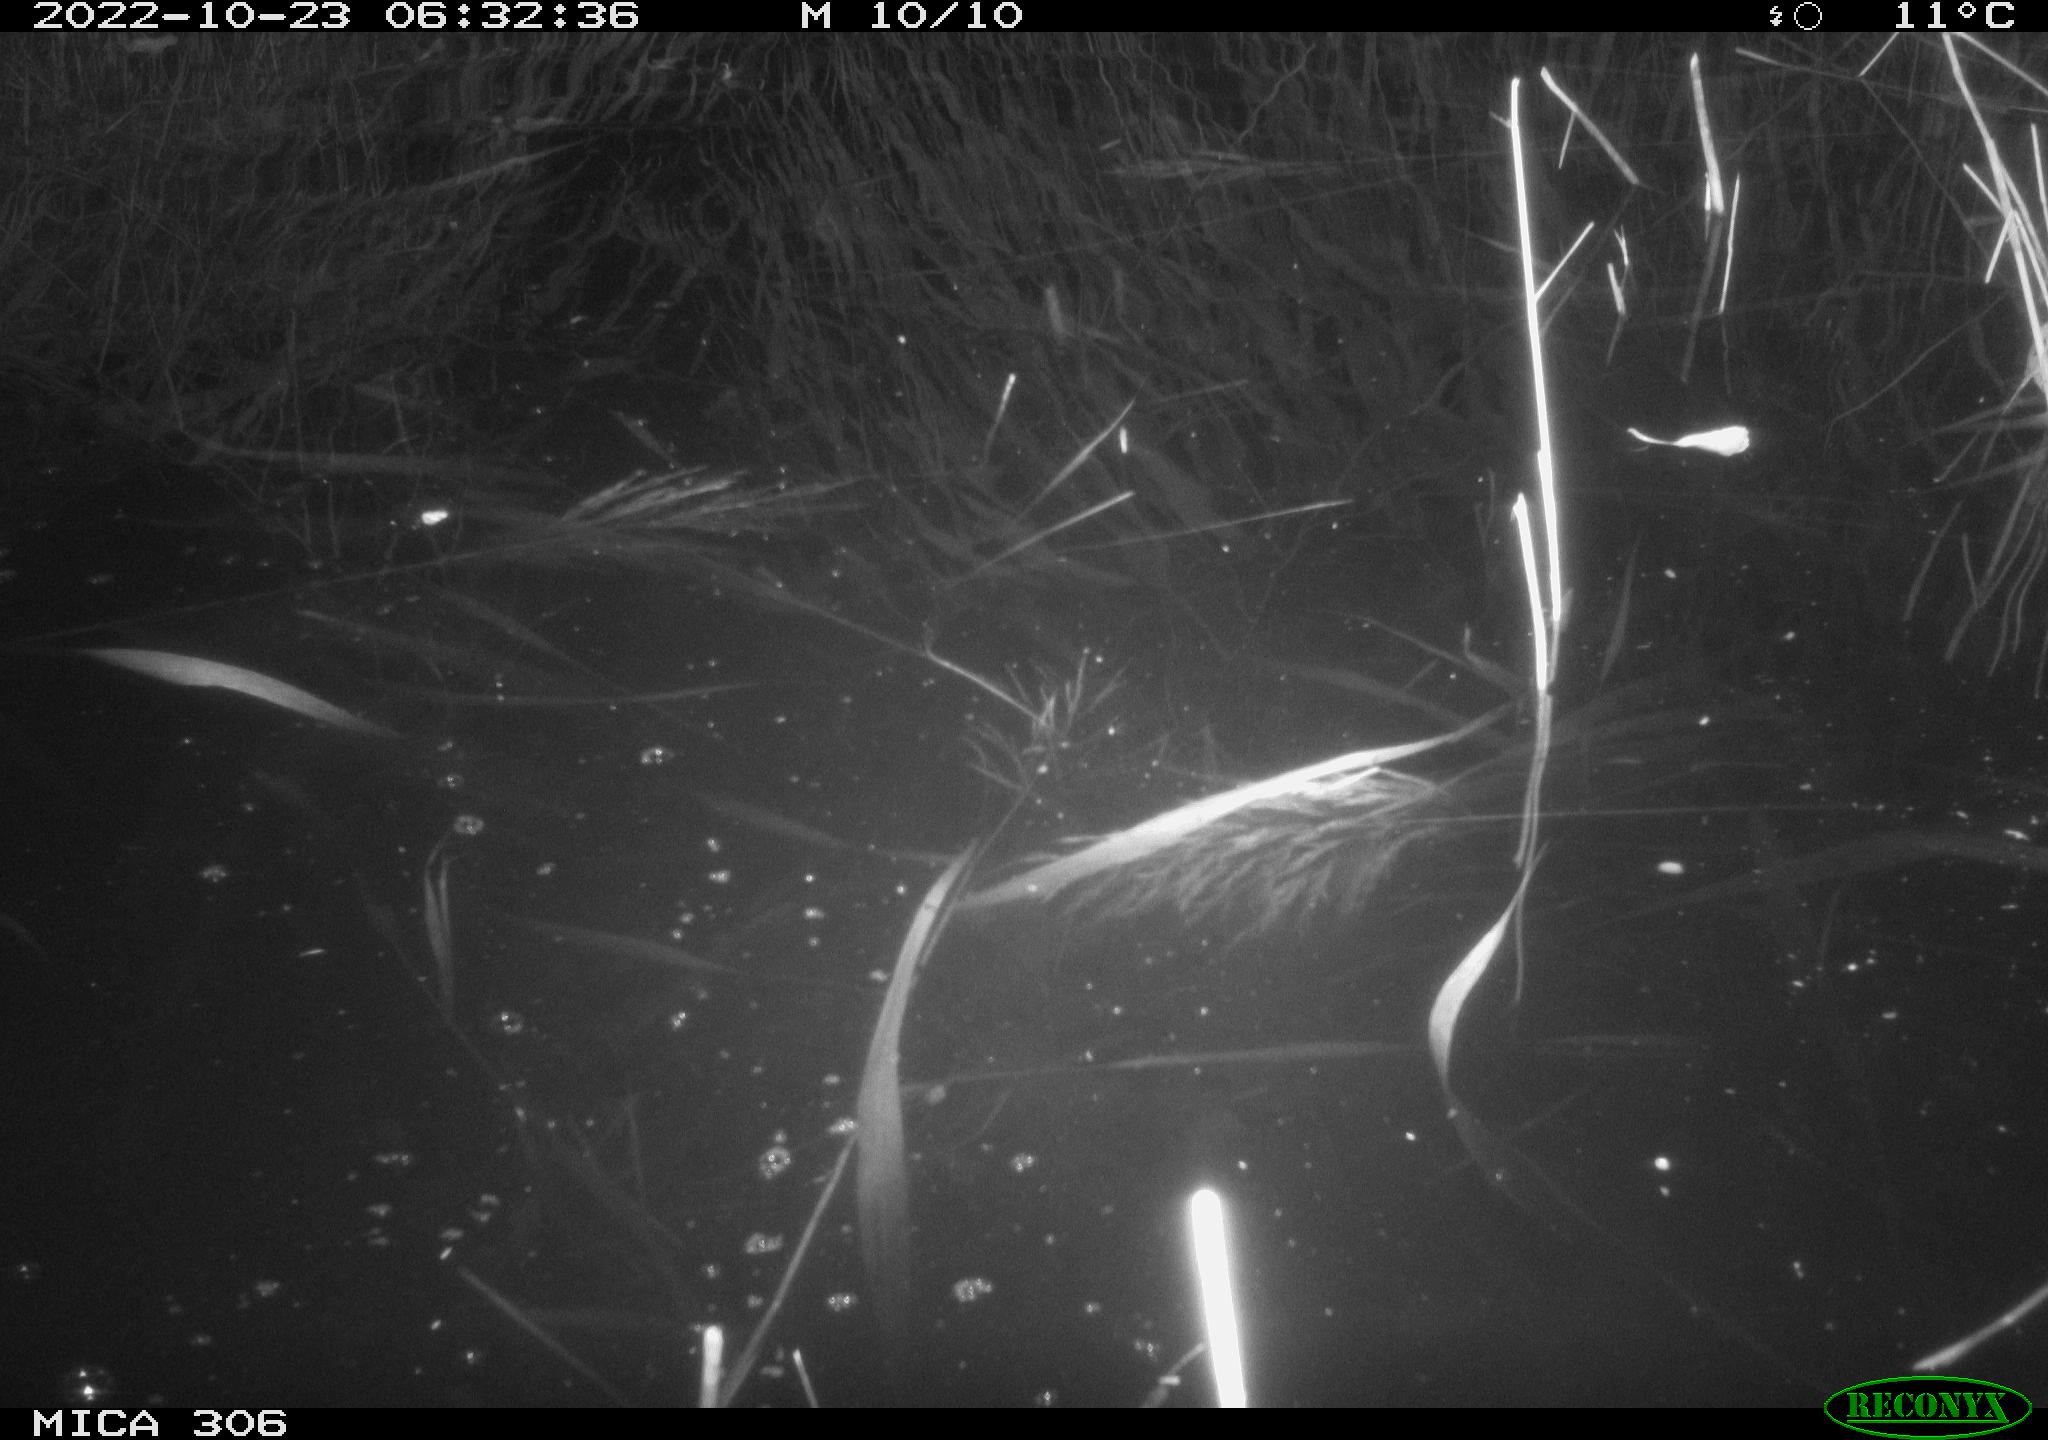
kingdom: Animalia
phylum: Chordata
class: Mammalia
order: Rodentia
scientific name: Rodentia
